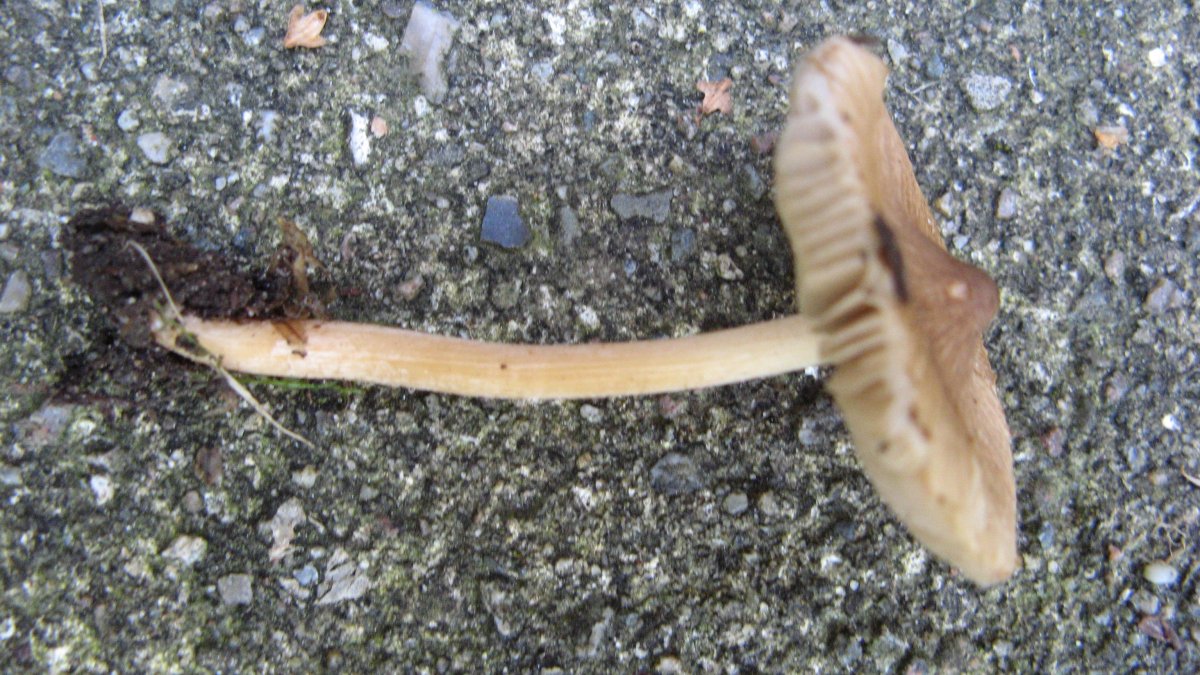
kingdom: Fungi
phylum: Basidiomycota
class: Agaricomycetes
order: Agaricales
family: Inocybaceae
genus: Inocybe
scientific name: Inocybe phaeodisca
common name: brunøjet trævlhat
